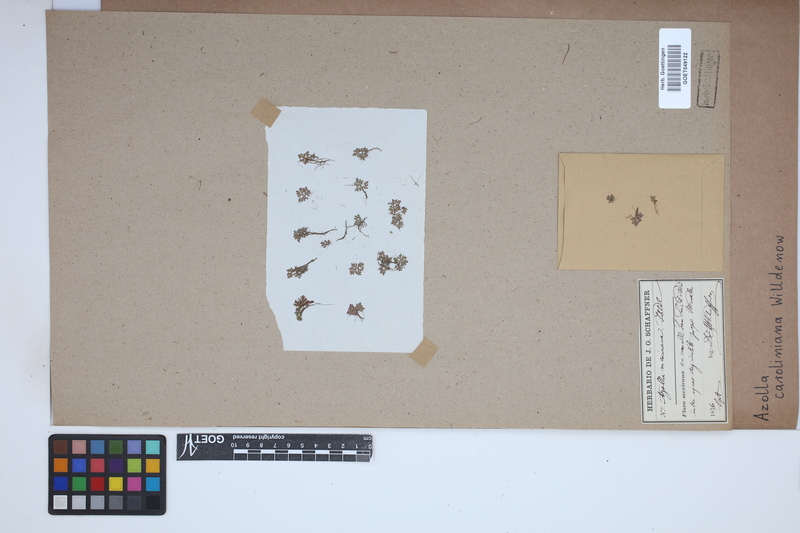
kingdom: Plantae
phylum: Tracheophyta
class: Polypodiopsida
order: Salviniales
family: Salviniaceae
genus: Azolla
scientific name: Azolla caroliniana
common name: Carolina mosquitofern
